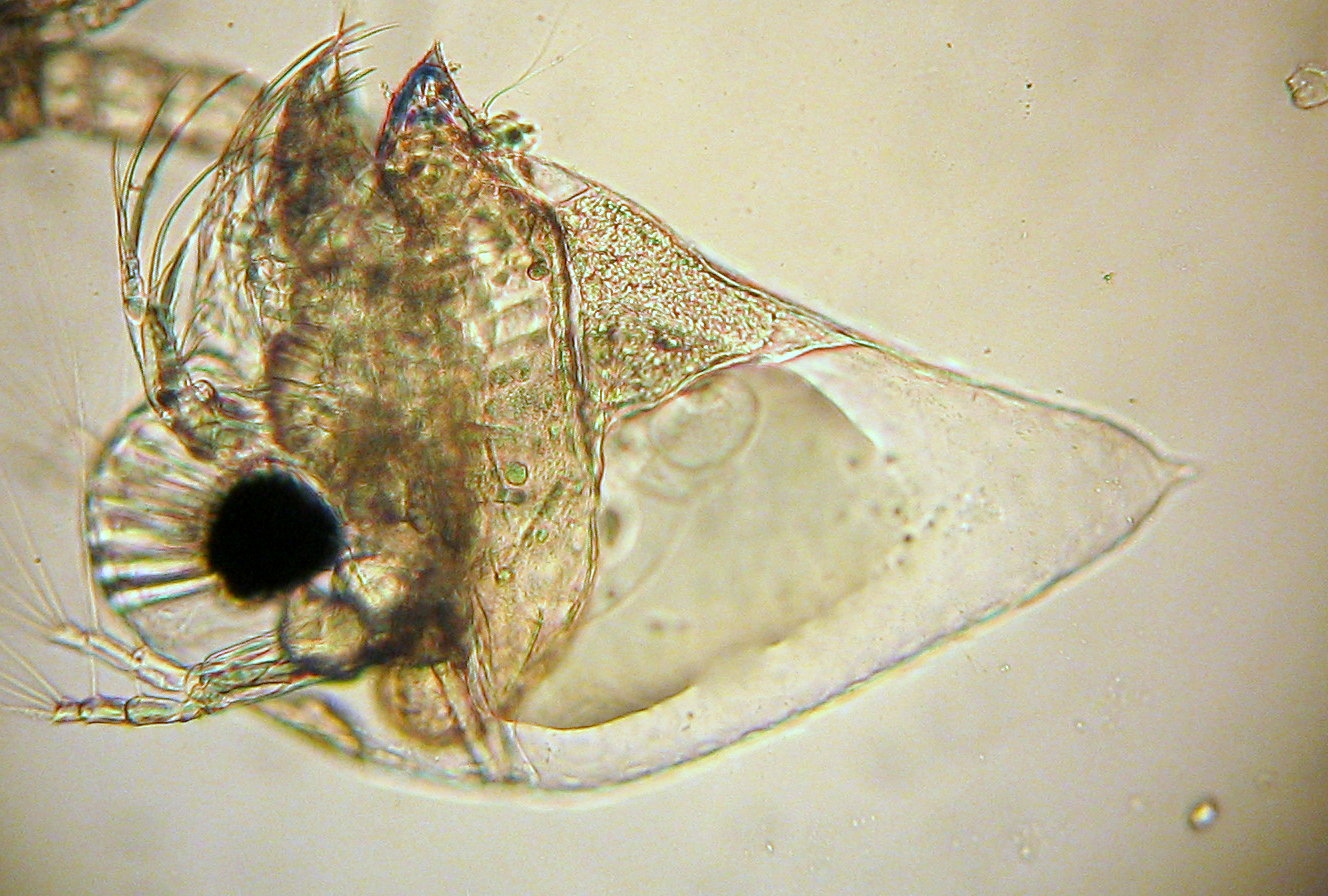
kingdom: Animalia
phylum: Arthropoda
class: Branchiopoda
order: Diplostraca
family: Podonidae
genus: Evadne
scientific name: Evadne nordmanni
